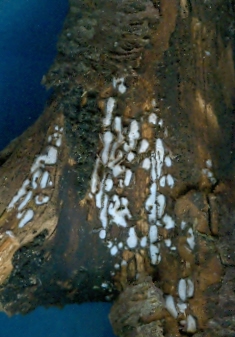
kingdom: Fungi
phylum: Ascomycota
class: Leotiomycetes
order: Chaetomellales
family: Marthamycetaceae
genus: Propolis
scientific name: Propolis farinosa
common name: almindelig vedsprængerskive
